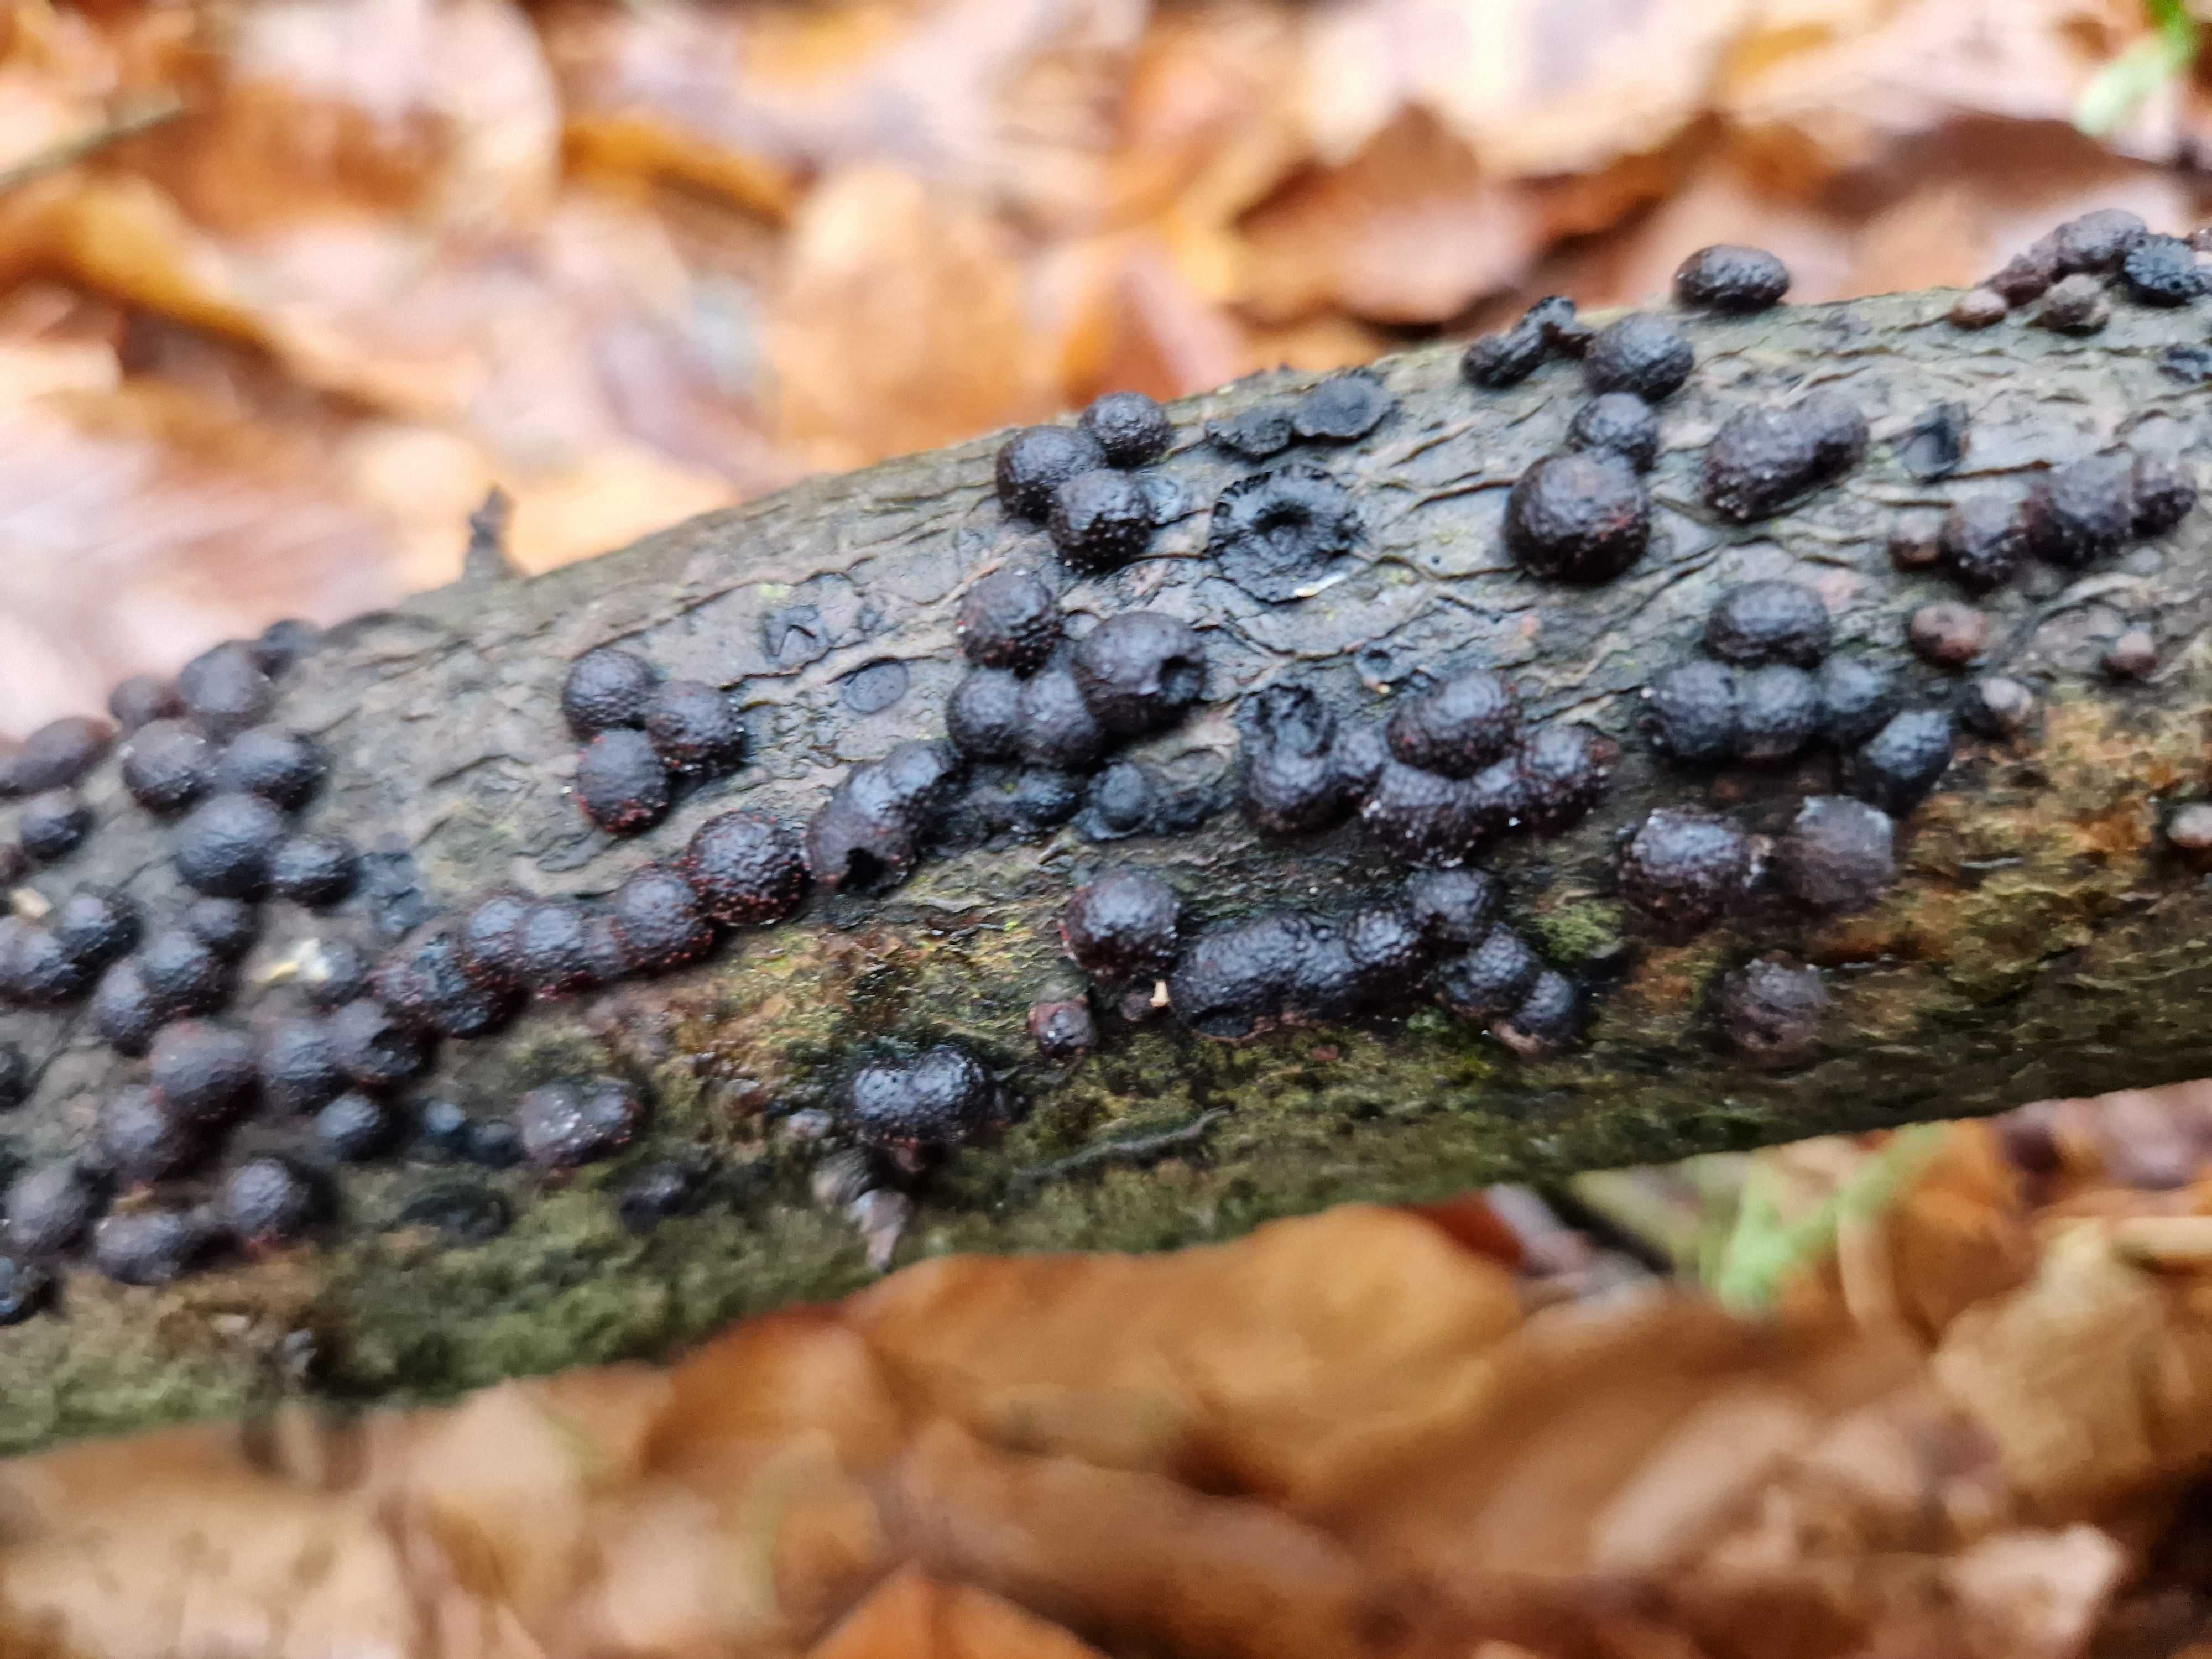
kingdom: Fungi
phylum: Ascomycota
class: Sordariomycetes
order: Xylariales
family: Hypoxylaceae
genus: Hypoxylon
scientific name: Hypoxylon fragiforme
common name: kuljordbær
